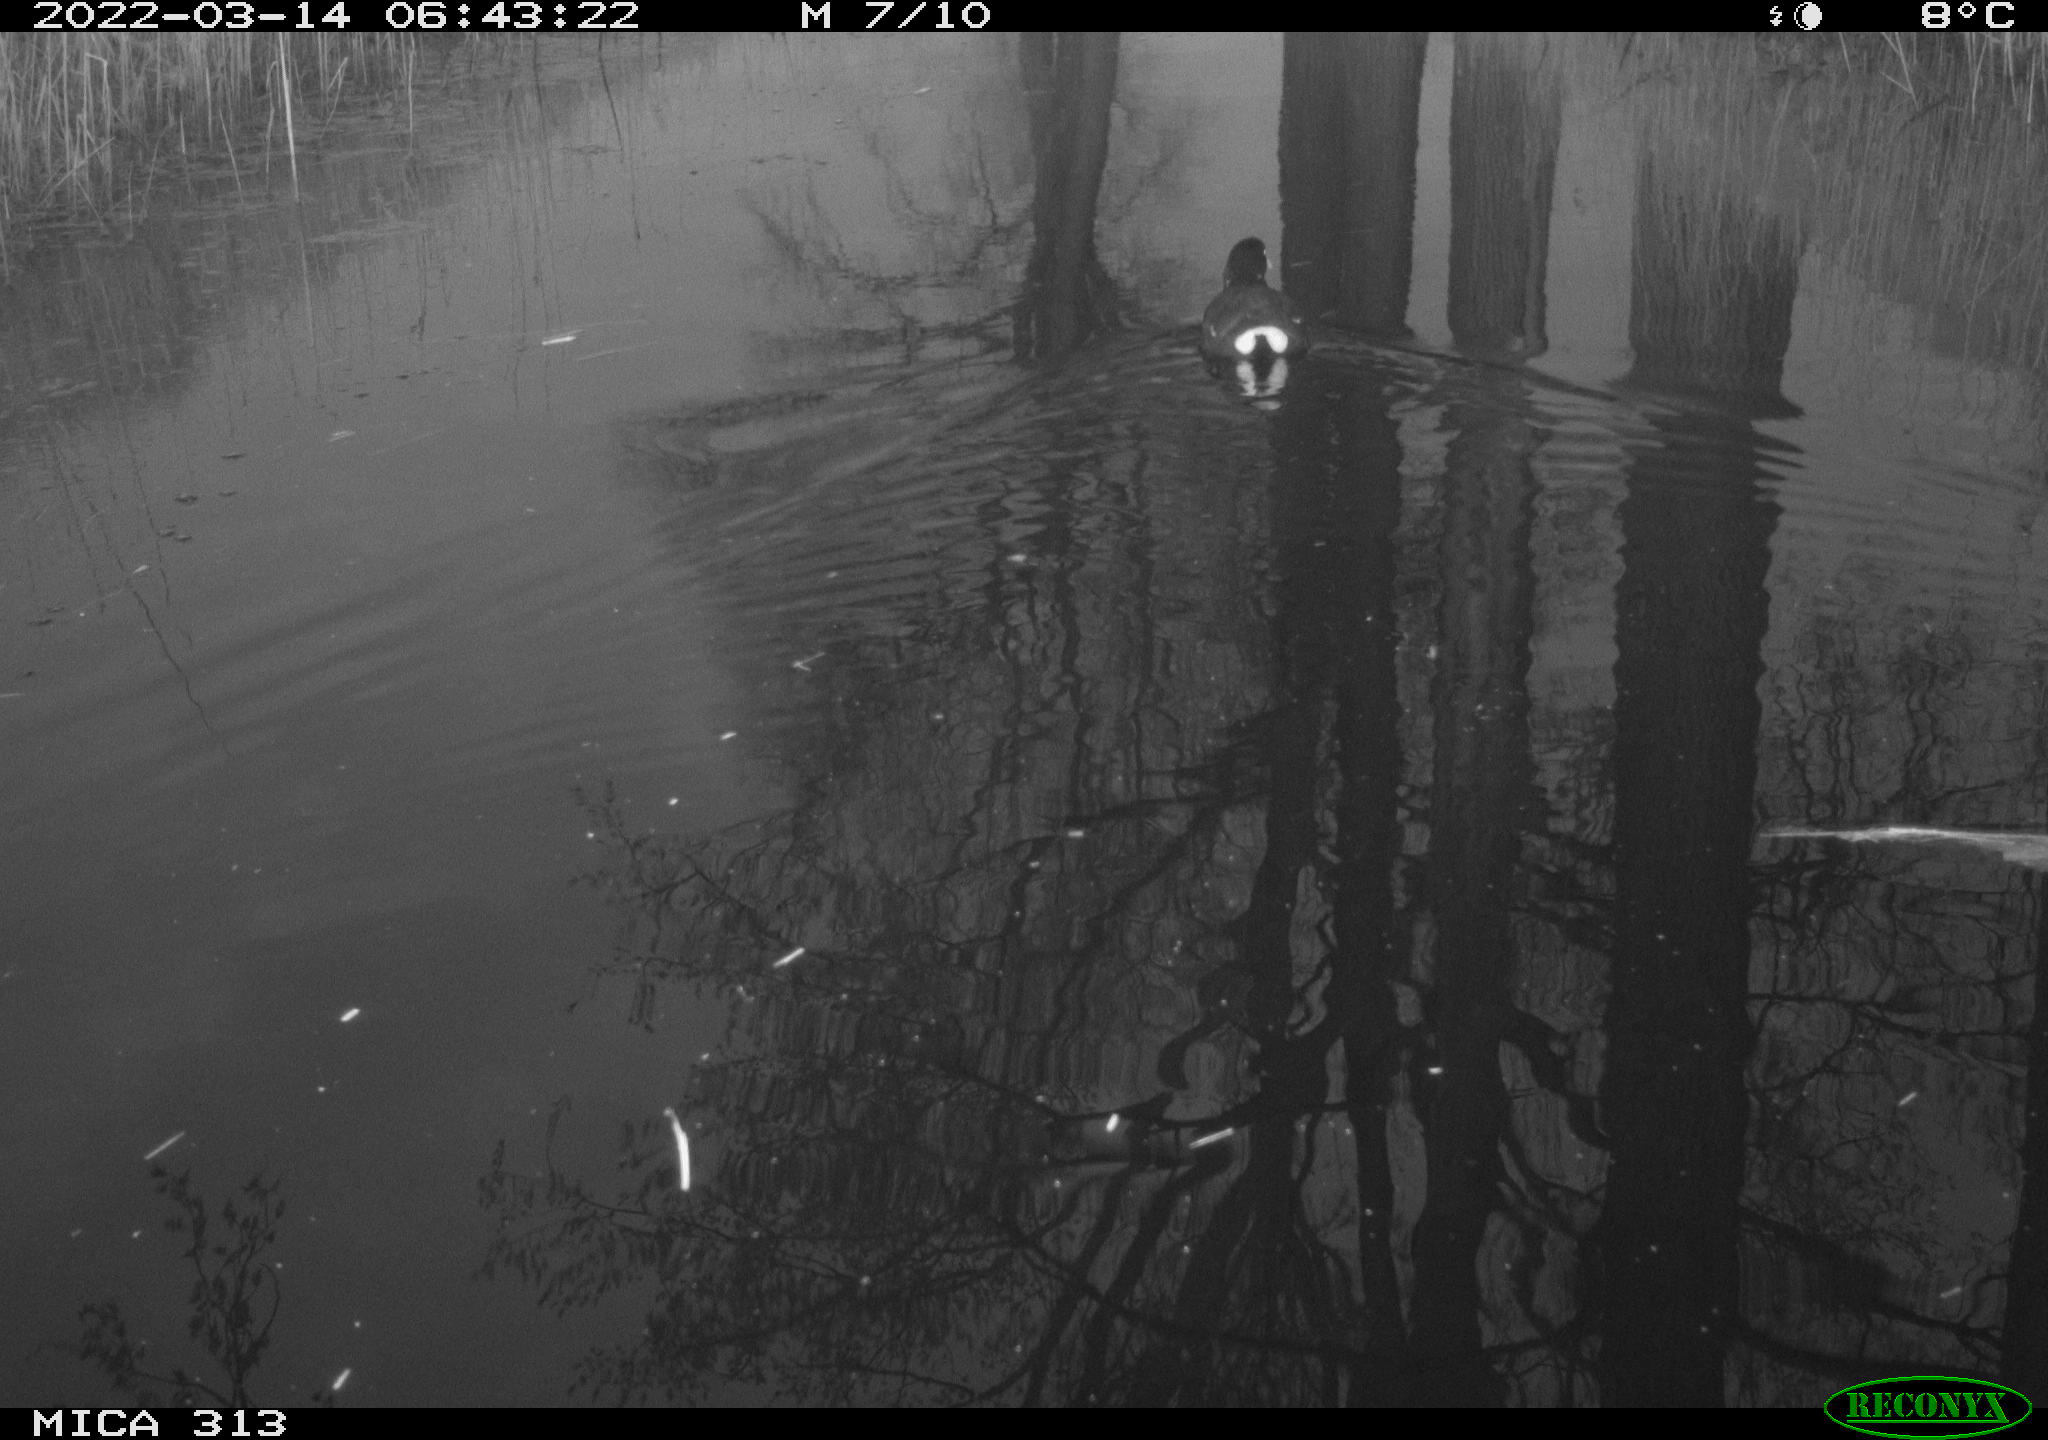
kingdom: Animalia
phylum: Chordata
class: Aves
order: Gruiformes
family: Rallidae
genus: Gallinula
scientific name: Gallinula chloropus
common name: Common moorhen
